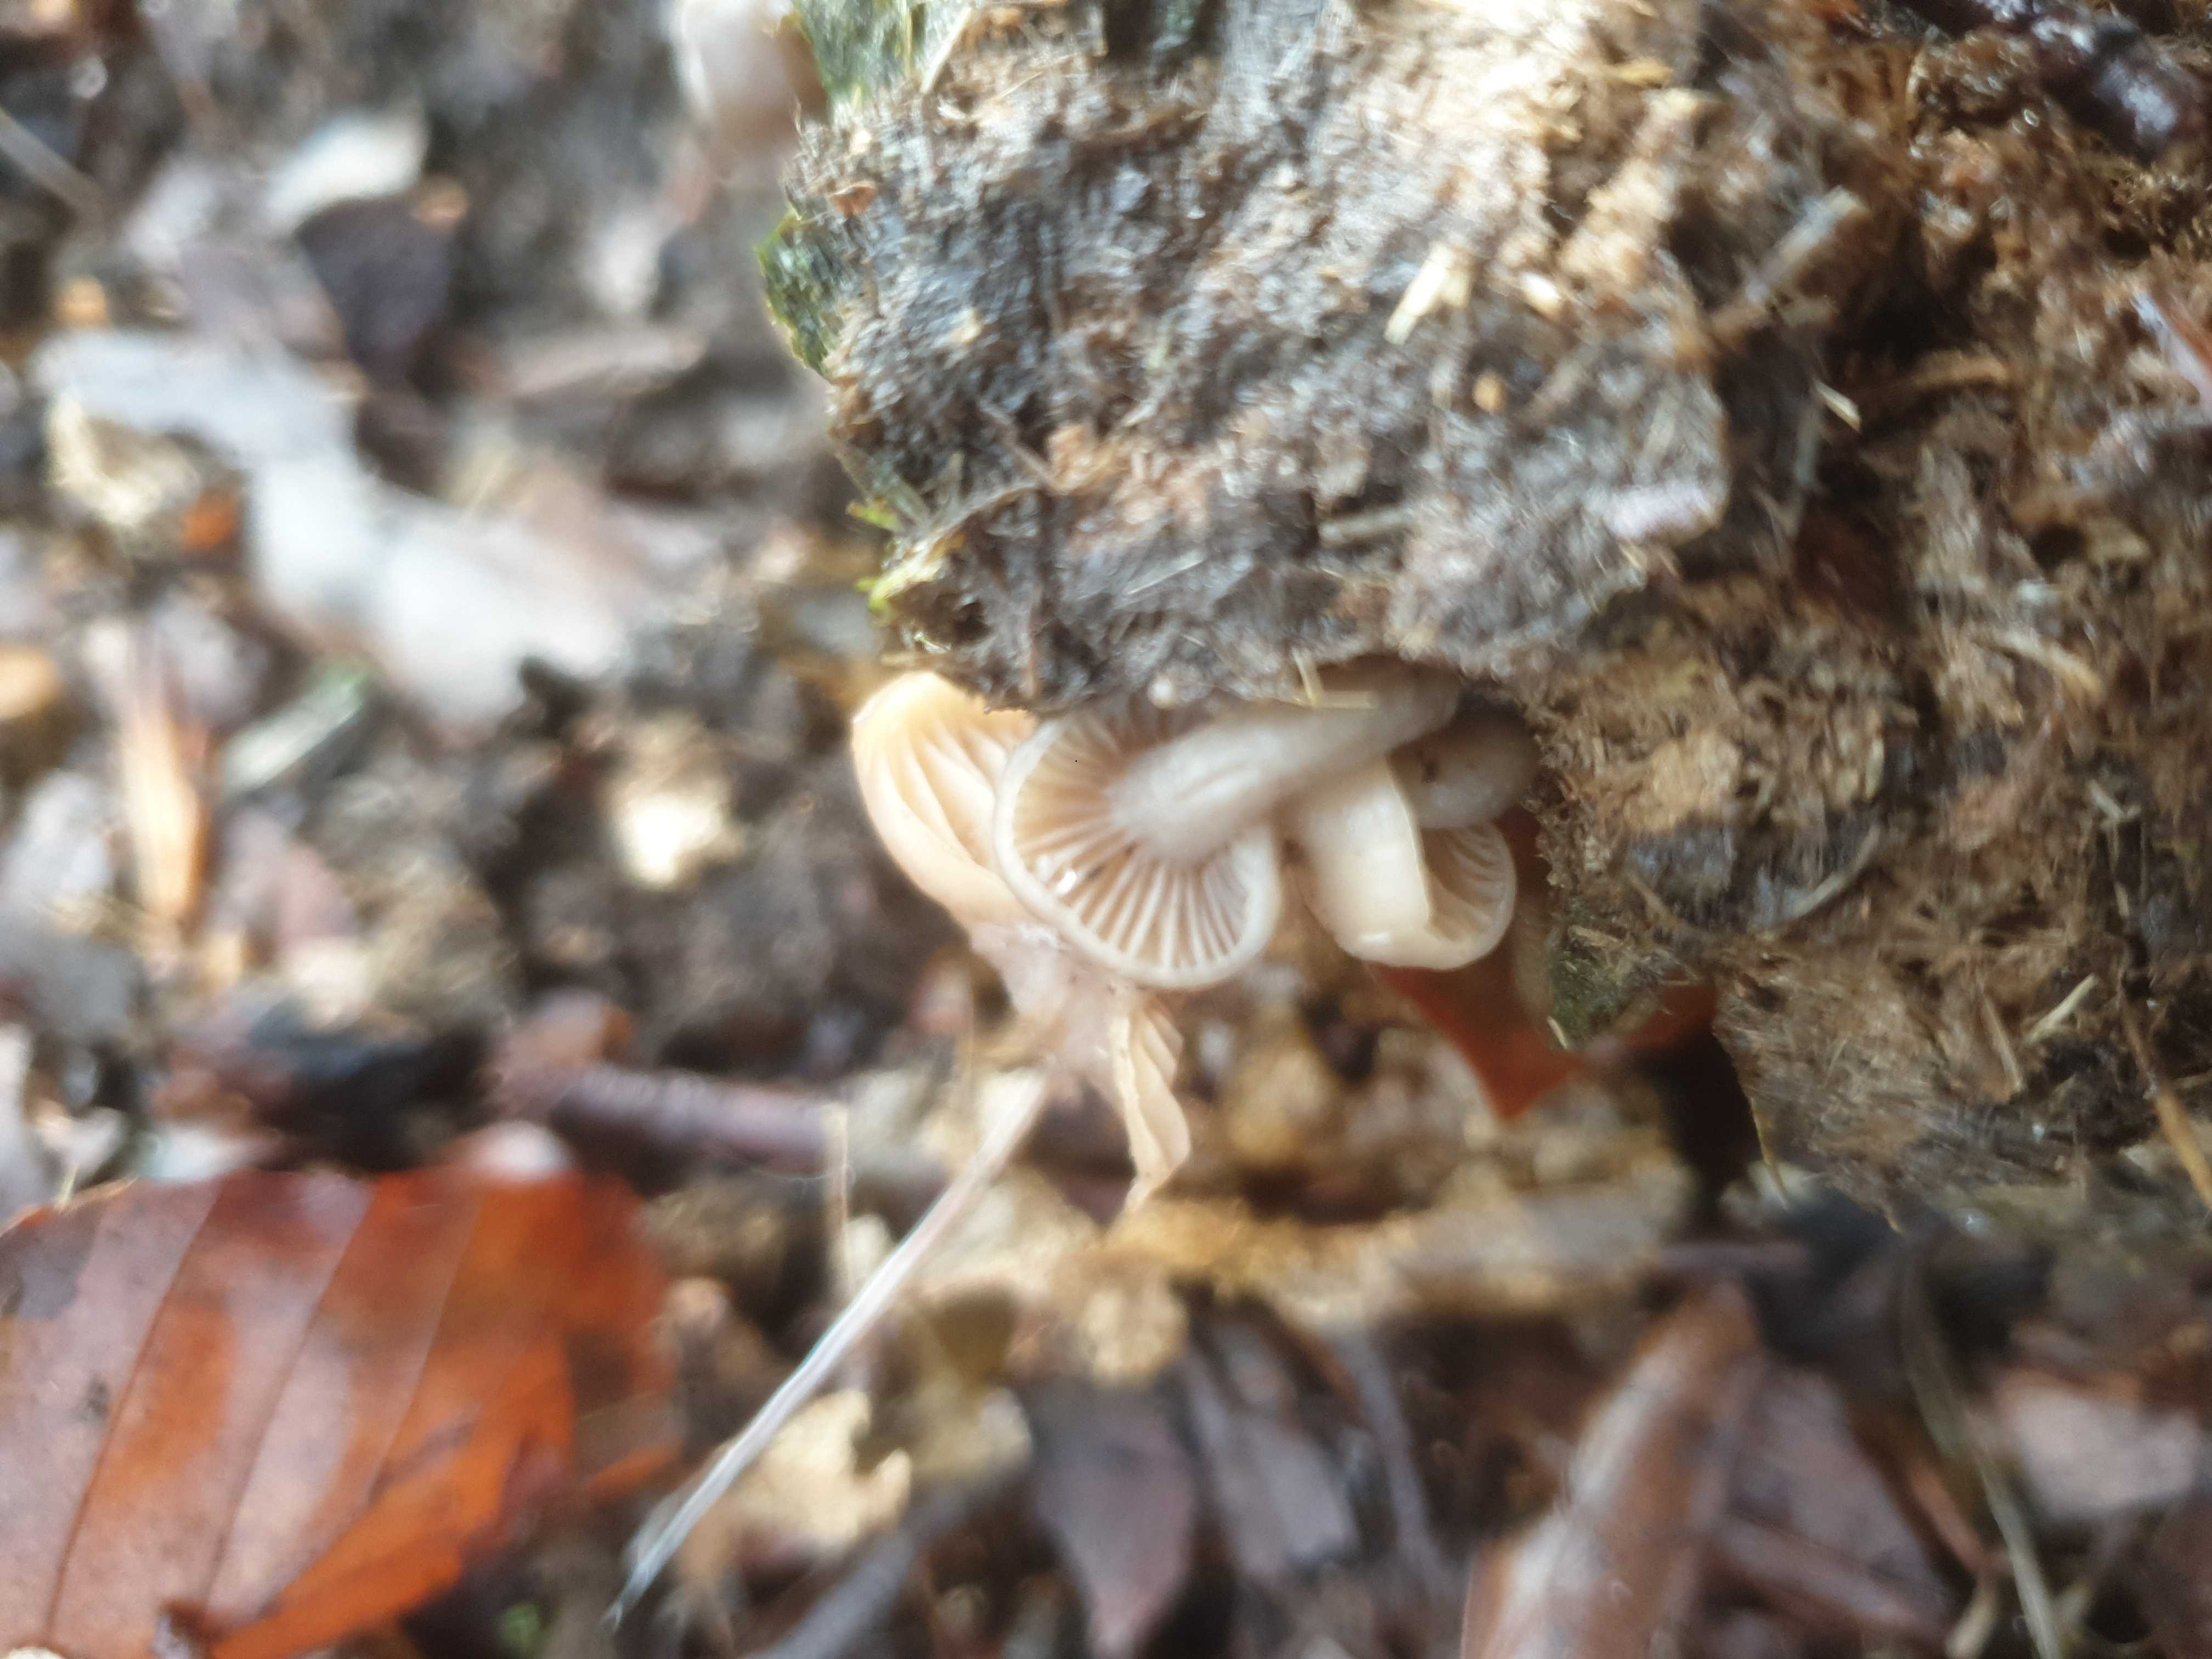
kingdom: Fungi
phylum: Basidiomycota
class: Agaricomycetes
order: Agaricales
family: Tricholomataceae
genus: Clitocybe
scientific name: Clitocybe amarescens
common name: gødnings-tragthat
